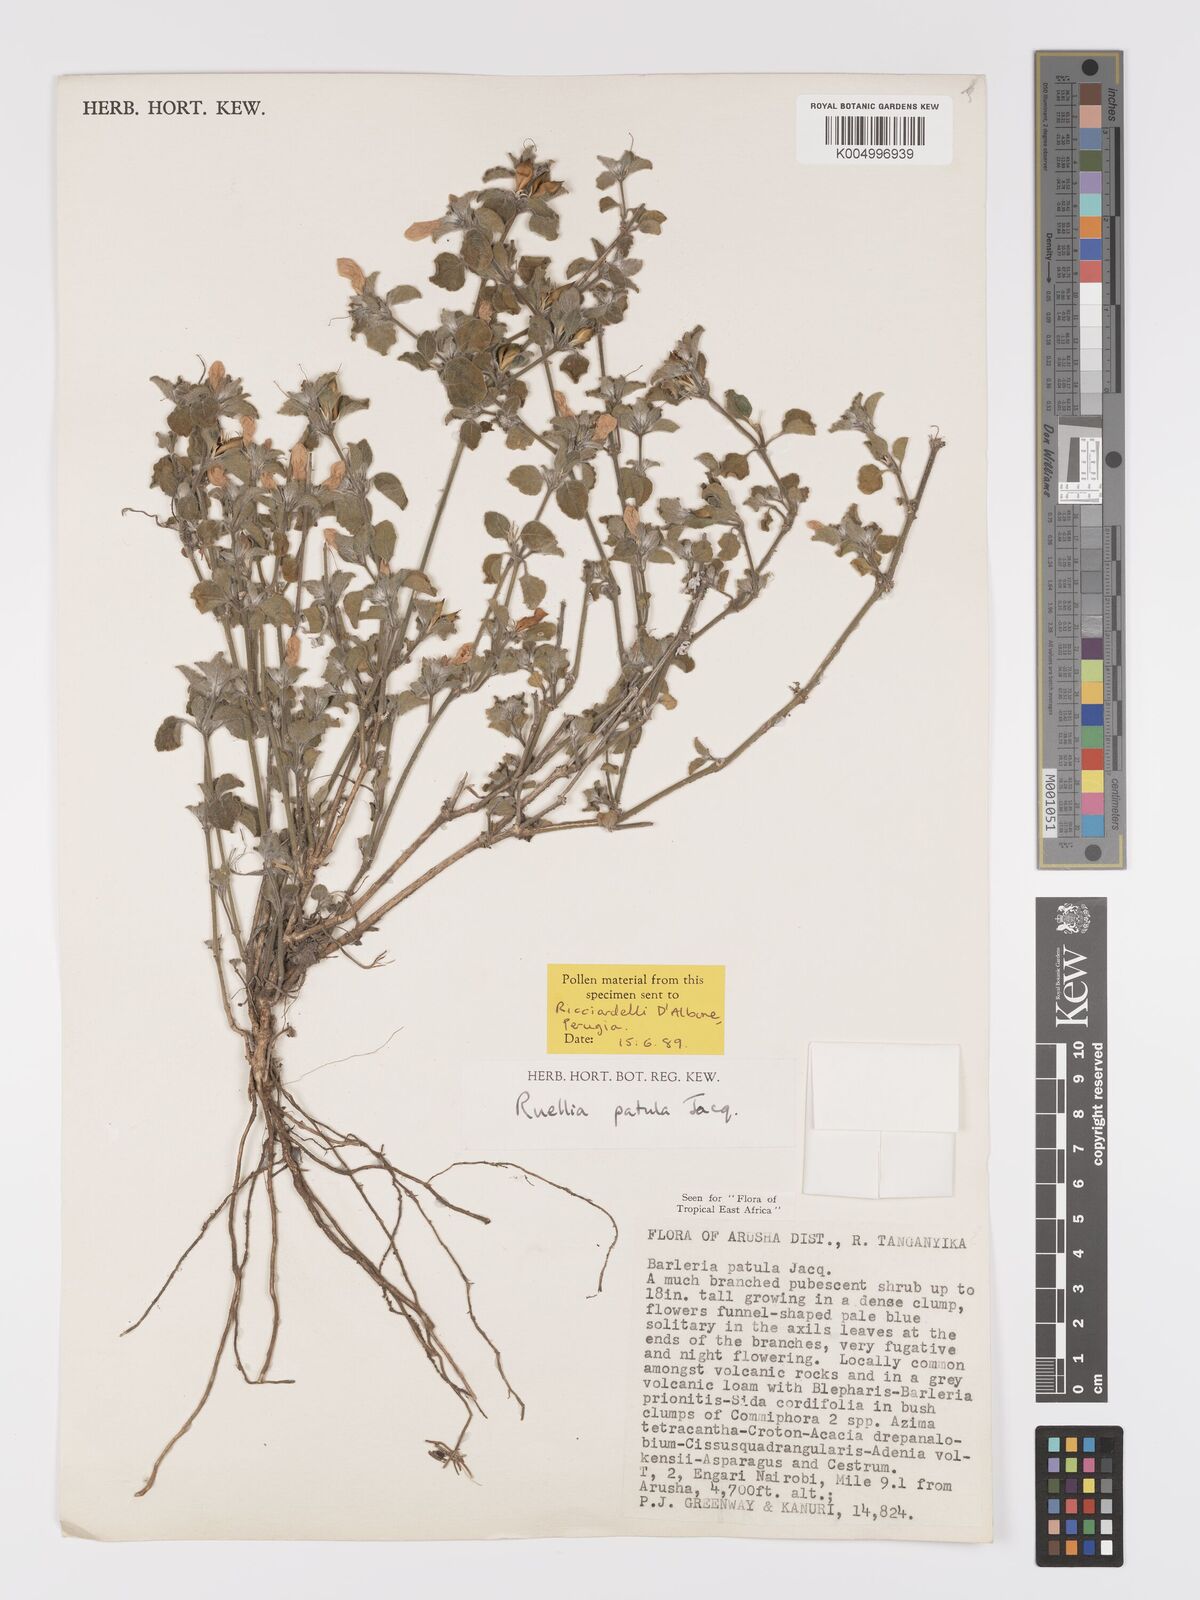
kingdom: Plantae
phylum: Tracheophyta
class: Magnoliopsida
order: Lamiales
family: Acanthaceae
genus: Ruellia
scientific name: Ruellia patula
